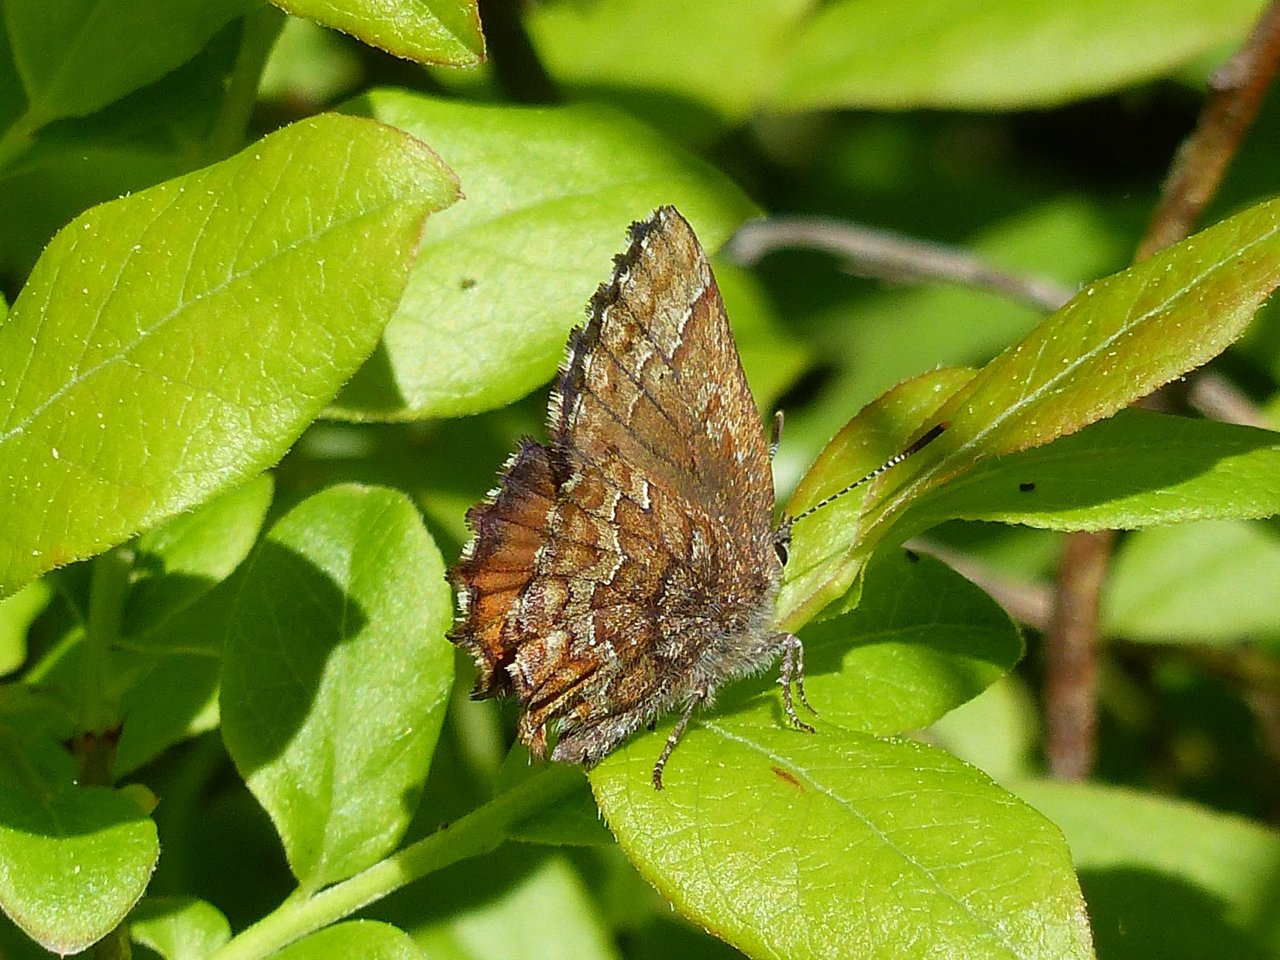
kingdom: Animalia
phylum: Arthropoda
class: Insecta
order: Lepidoptera
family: Lycaenidae
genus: Incisalia
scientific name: Incisalia niphon
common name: Eastern Pine Elfin
